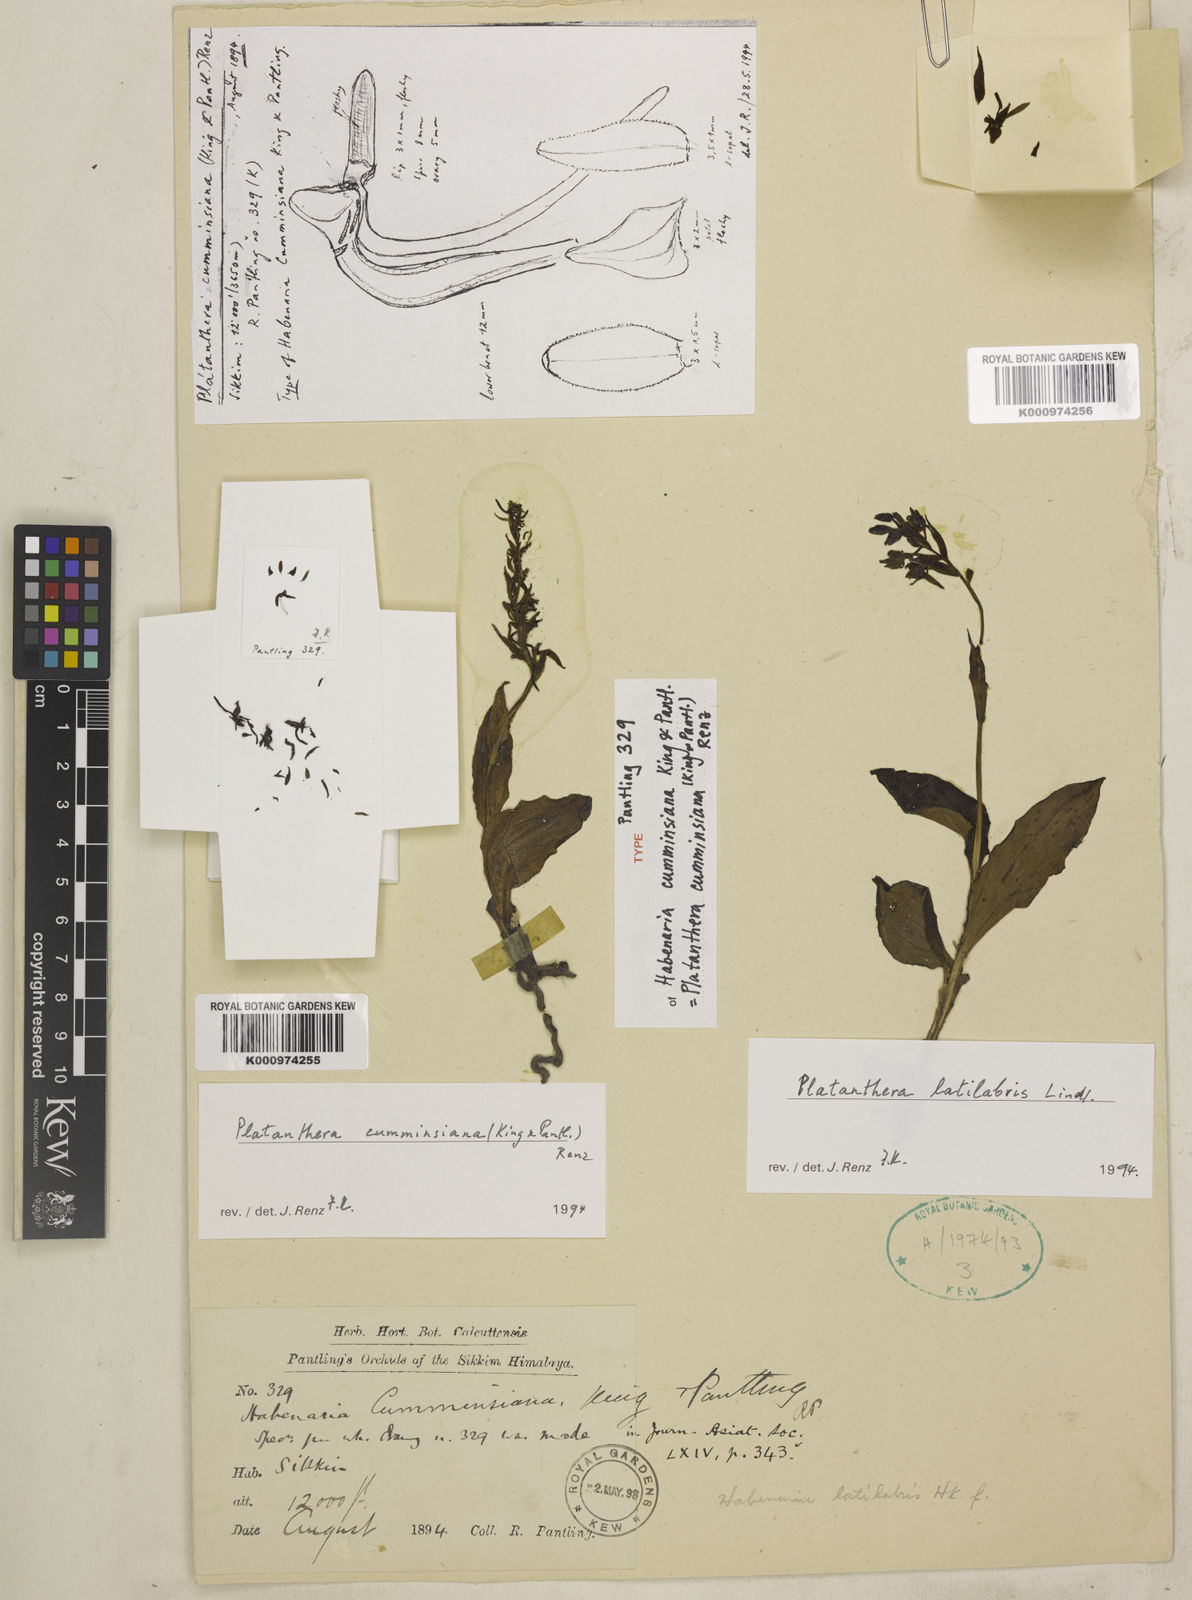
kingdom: Plantae
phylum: Tracheophyta
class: Liliopsida
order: Asparagales
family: Orchidaceae
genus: Herminium
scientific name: Herminium latilabre
